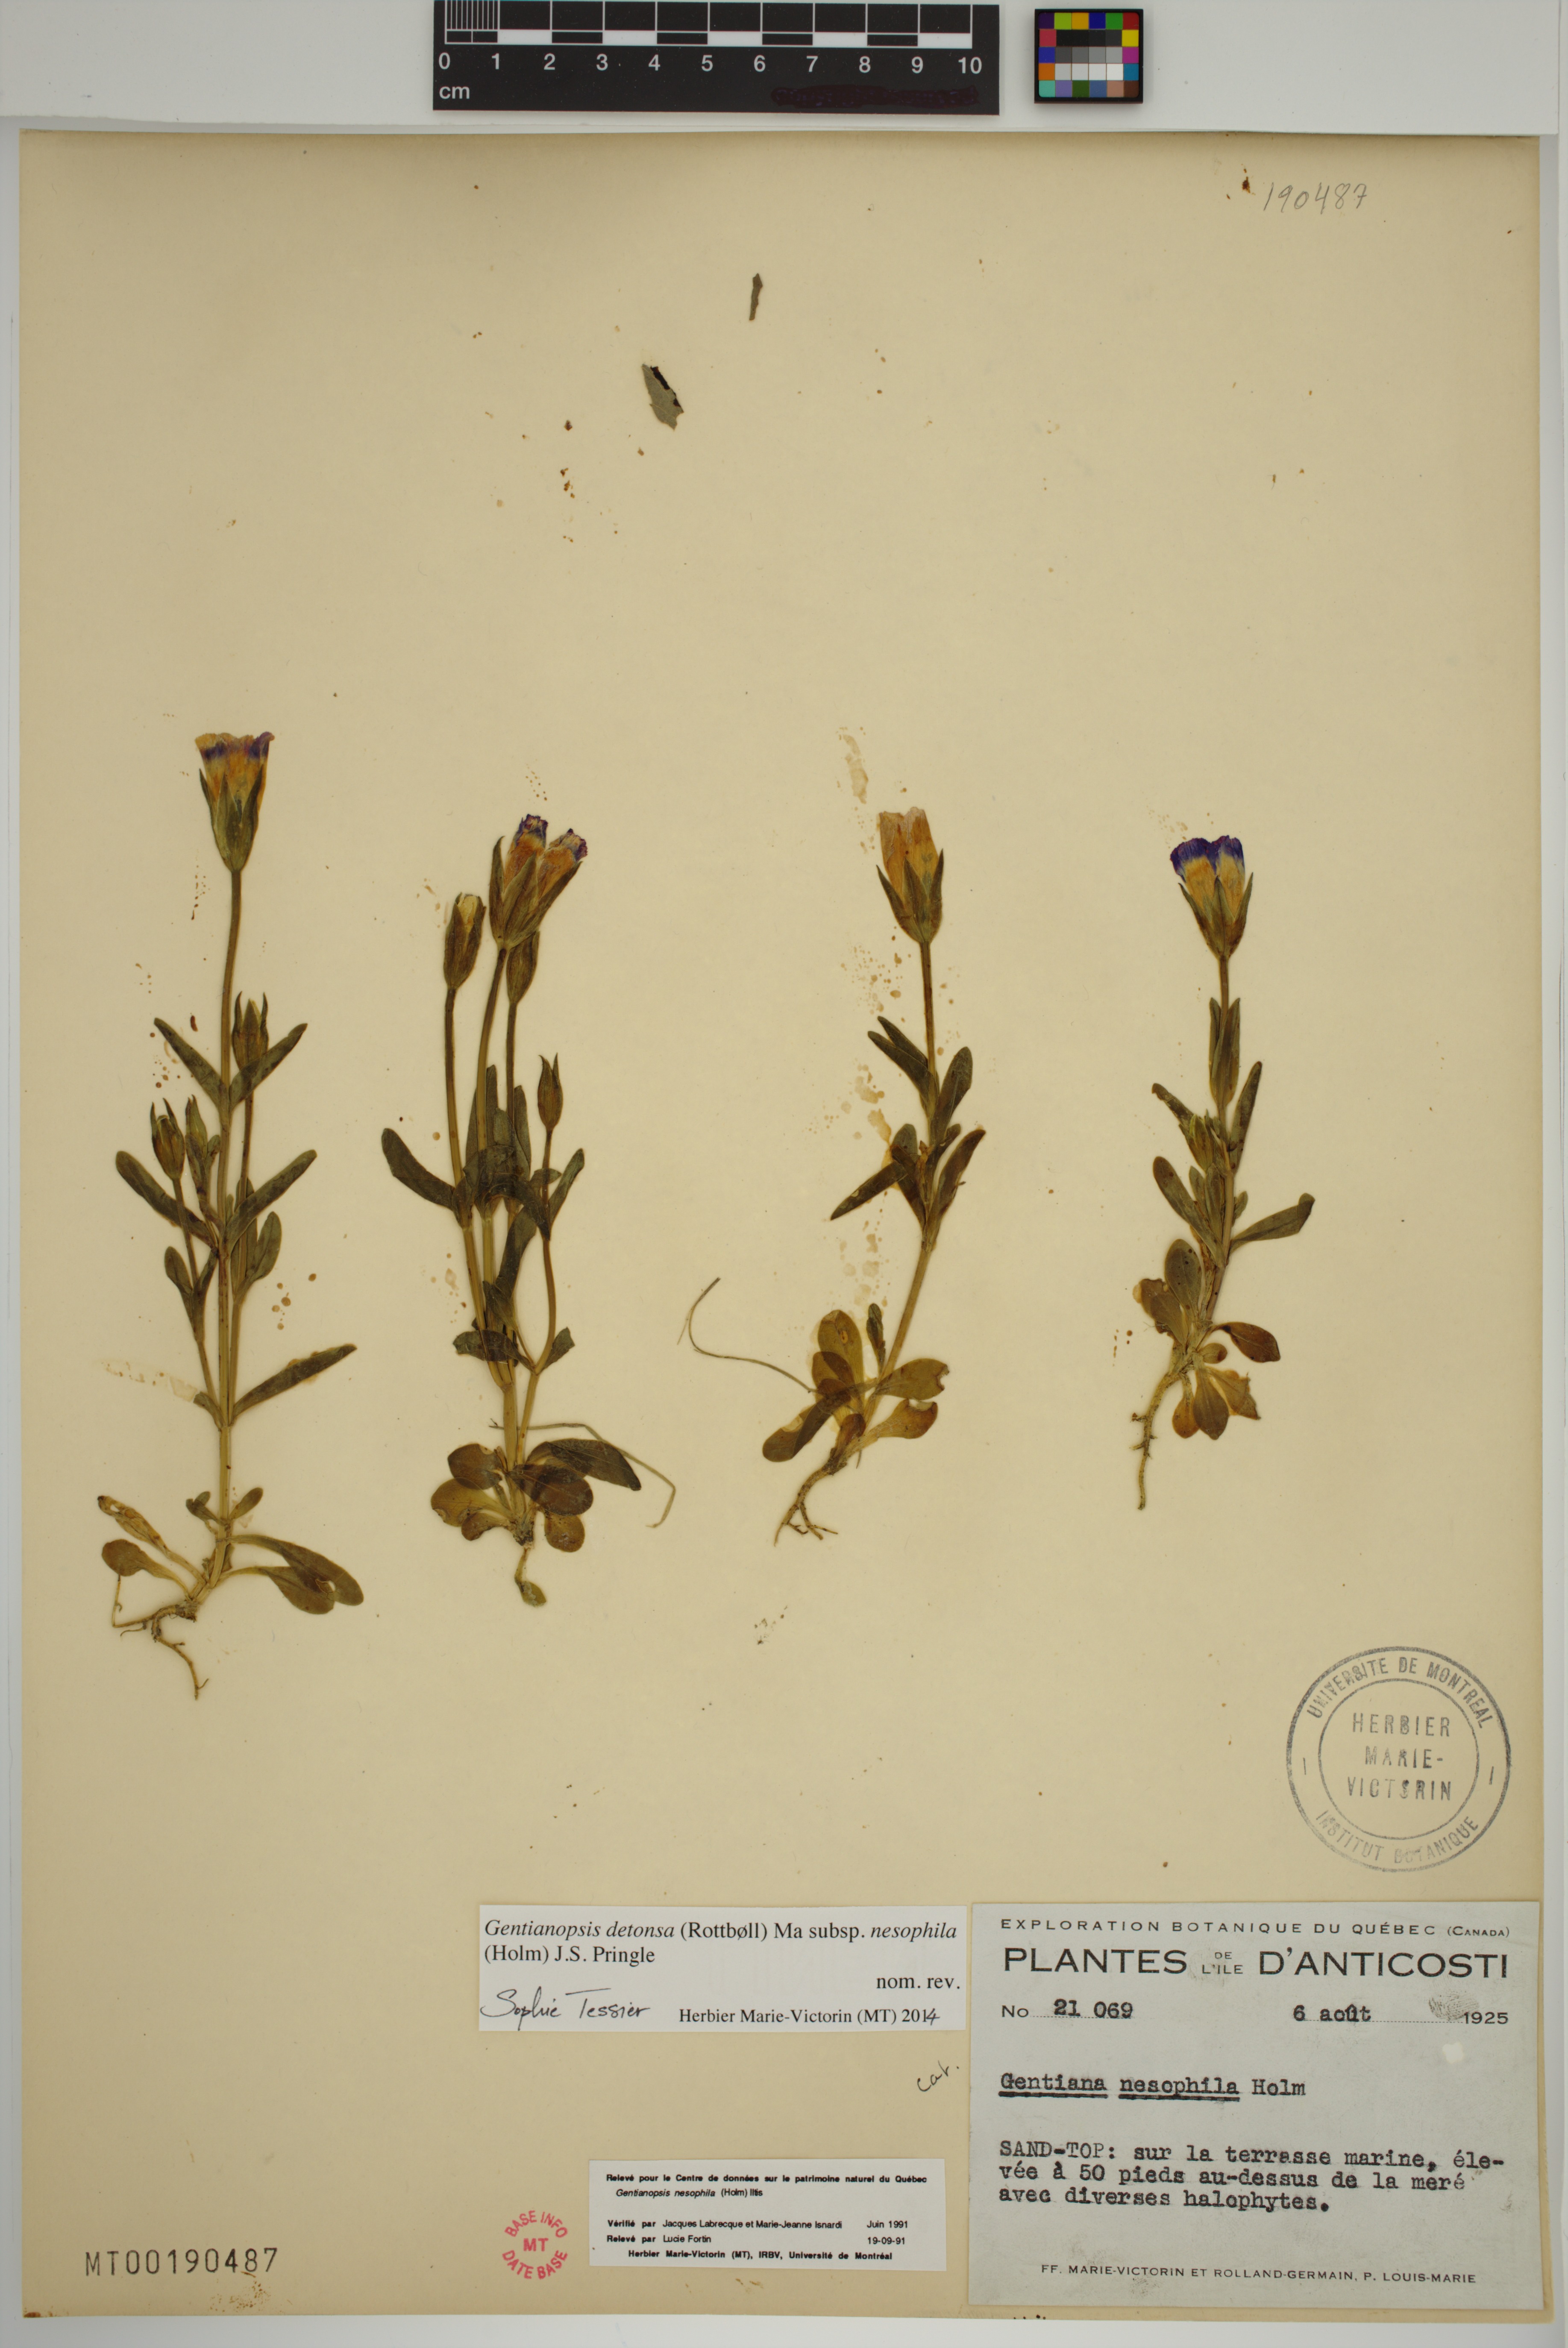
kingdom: Plantae
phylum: Tracheophyta
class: Magnoliopsida
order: Gentianales
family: Gentianaceae
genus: Gentianopsis
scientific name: Gentianopsis nesophila
